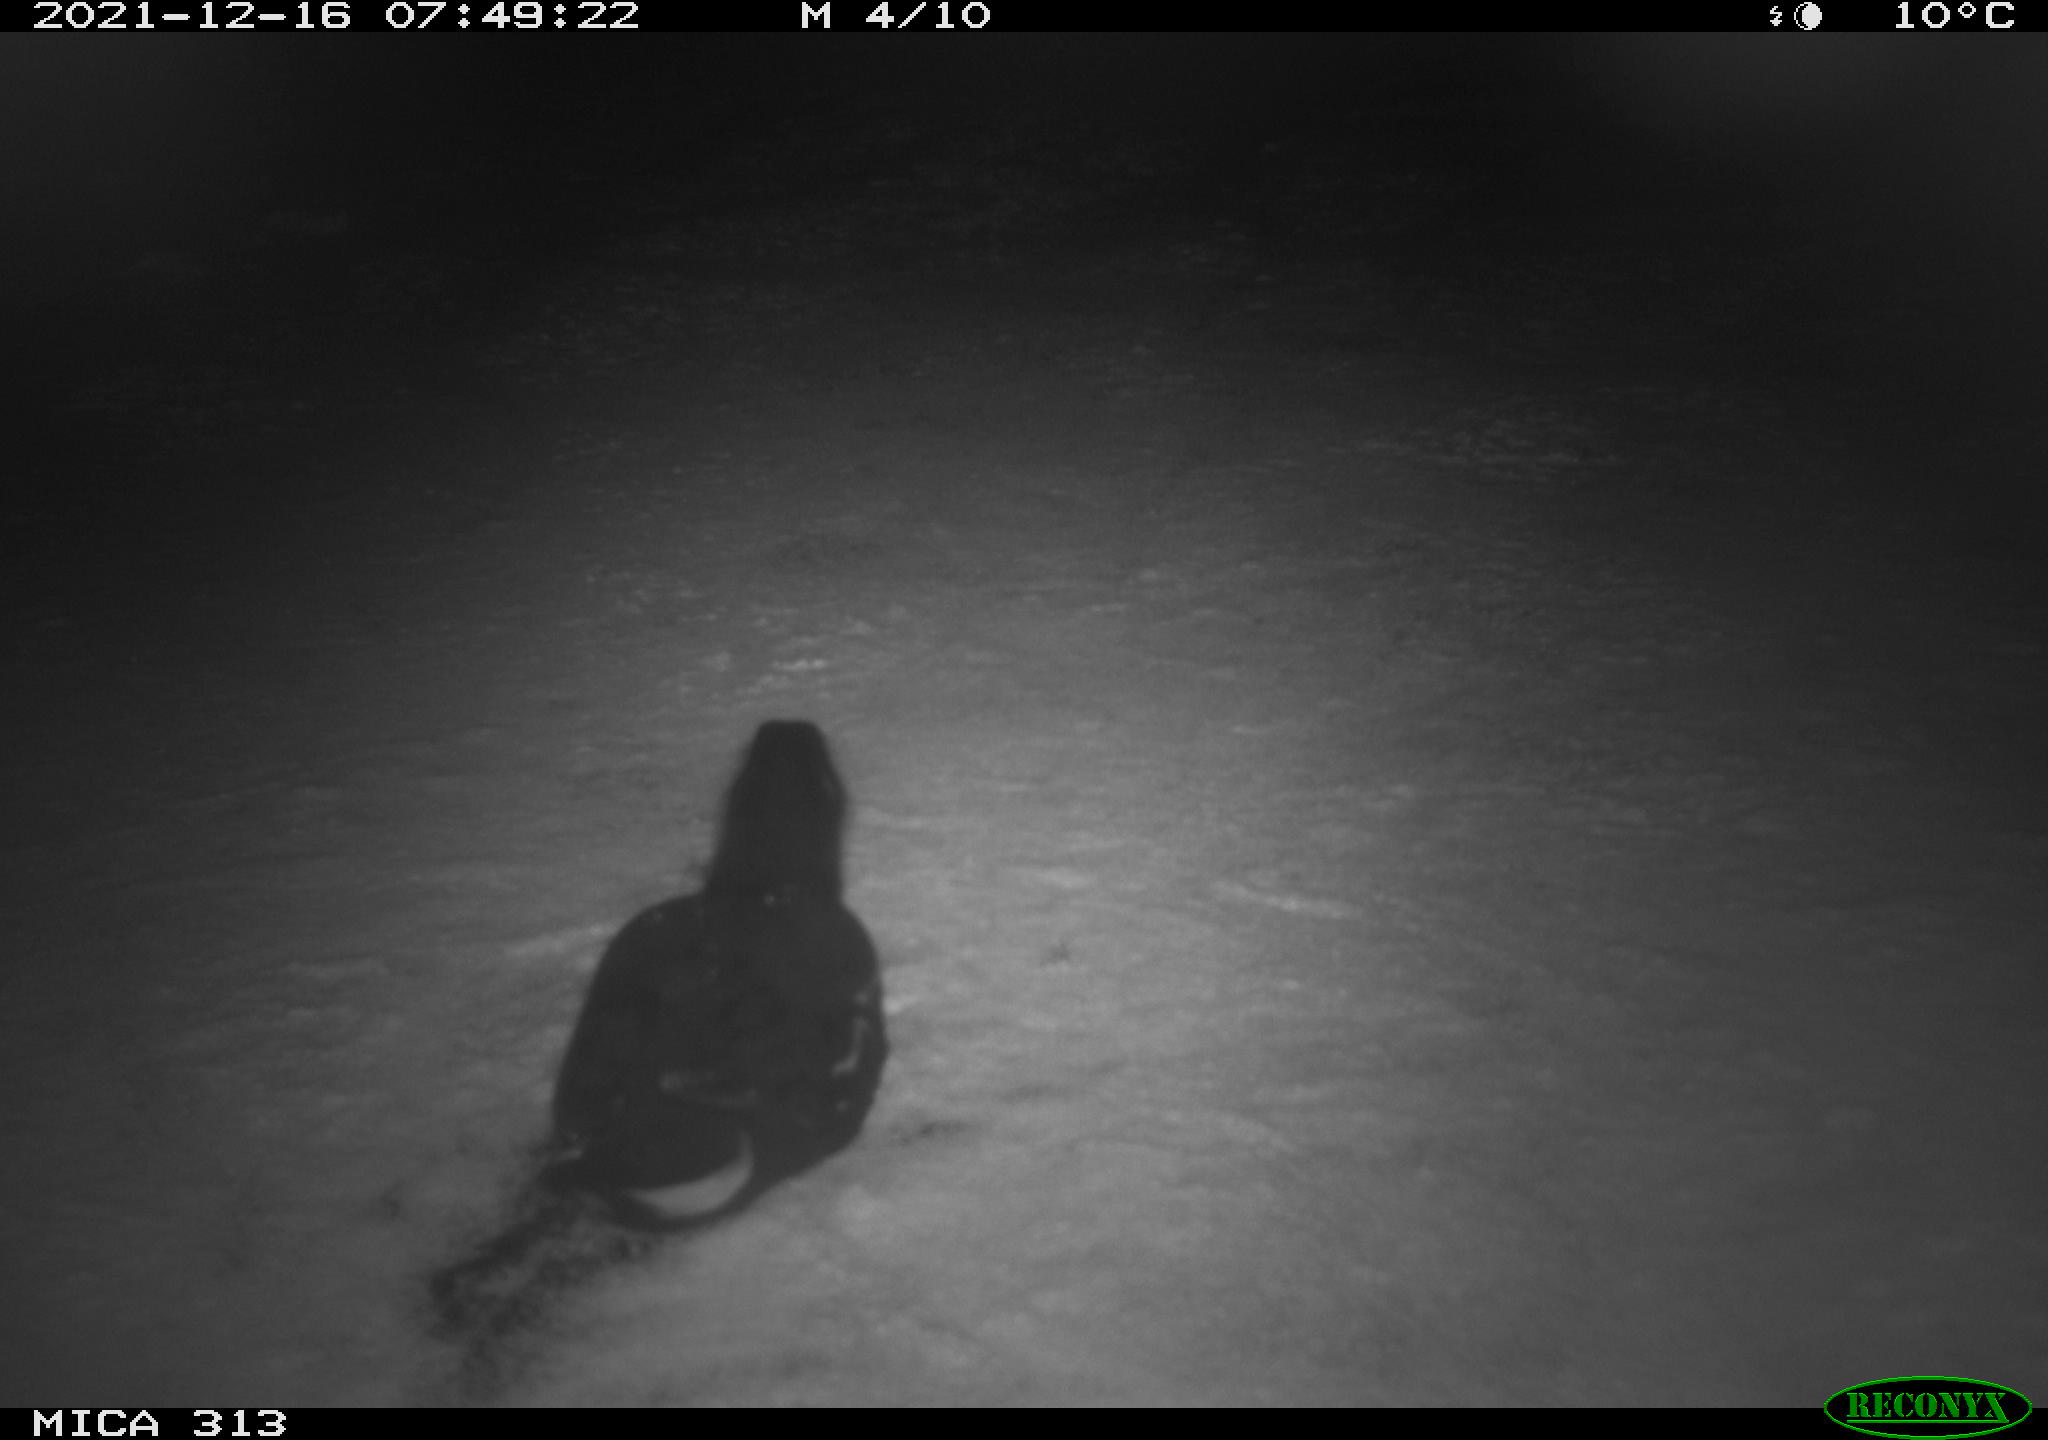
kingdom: Animalia
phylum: Chordata
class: Aves
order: Gruiformes
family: Rallidae
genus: Fulica
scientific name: Fulica atra
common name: Eurasian coot
